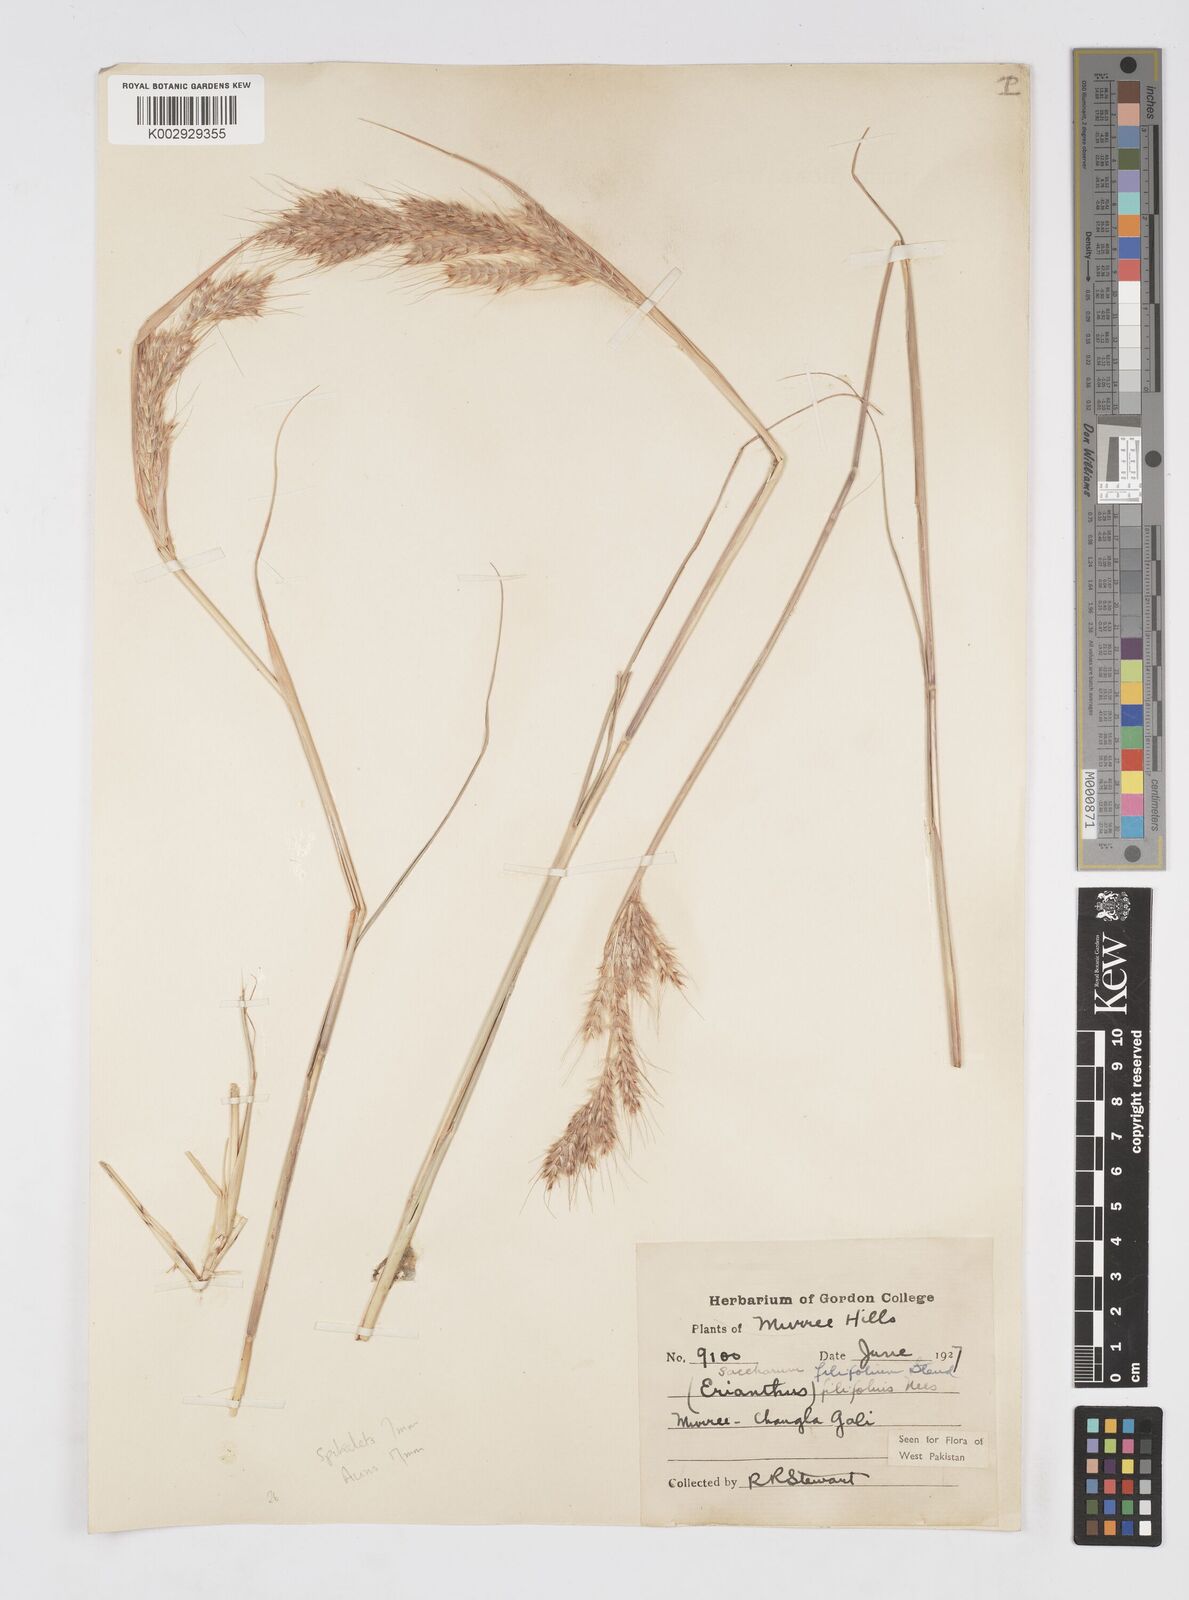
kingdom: Plantae
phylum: Tracheophyta
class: Liliopsida
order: Poales
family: Poaceae
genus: Saccharum
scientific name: Saccharum filifolium
